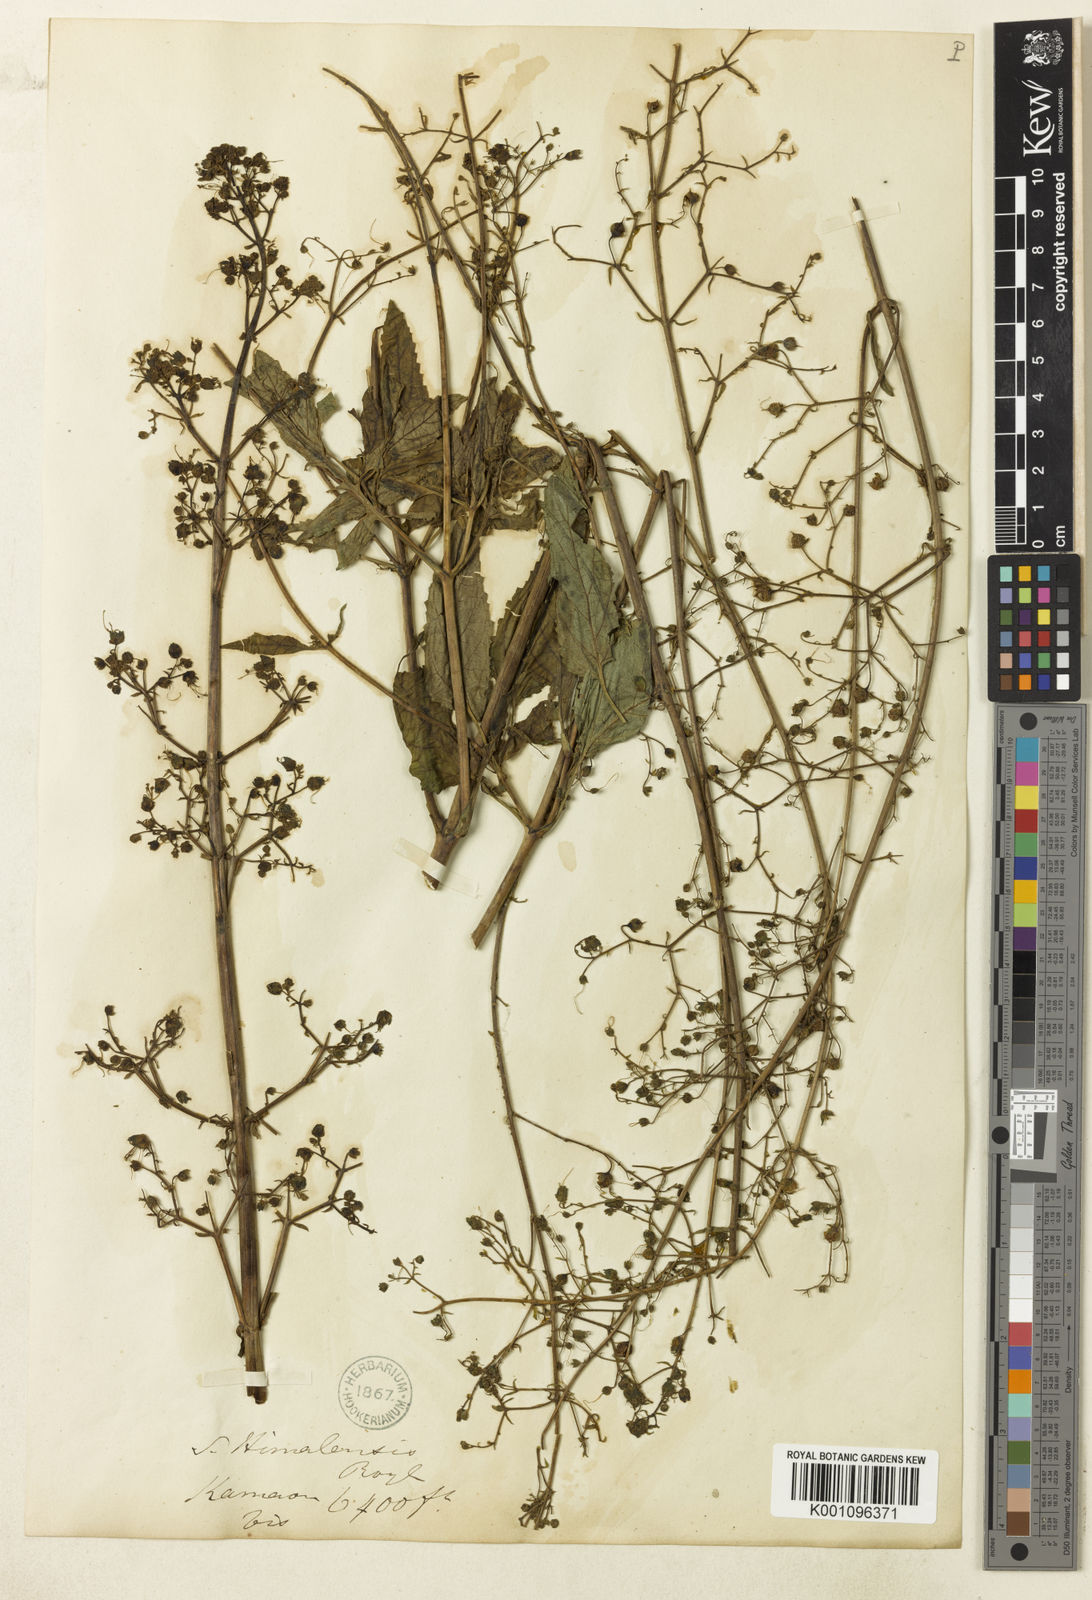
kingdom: Plantae
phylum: Tracheophyta
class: Magnoliopsida
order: Lamiales
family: Scrophulariaceae
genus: Scrophularia
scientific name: Scrophularia himalensis
